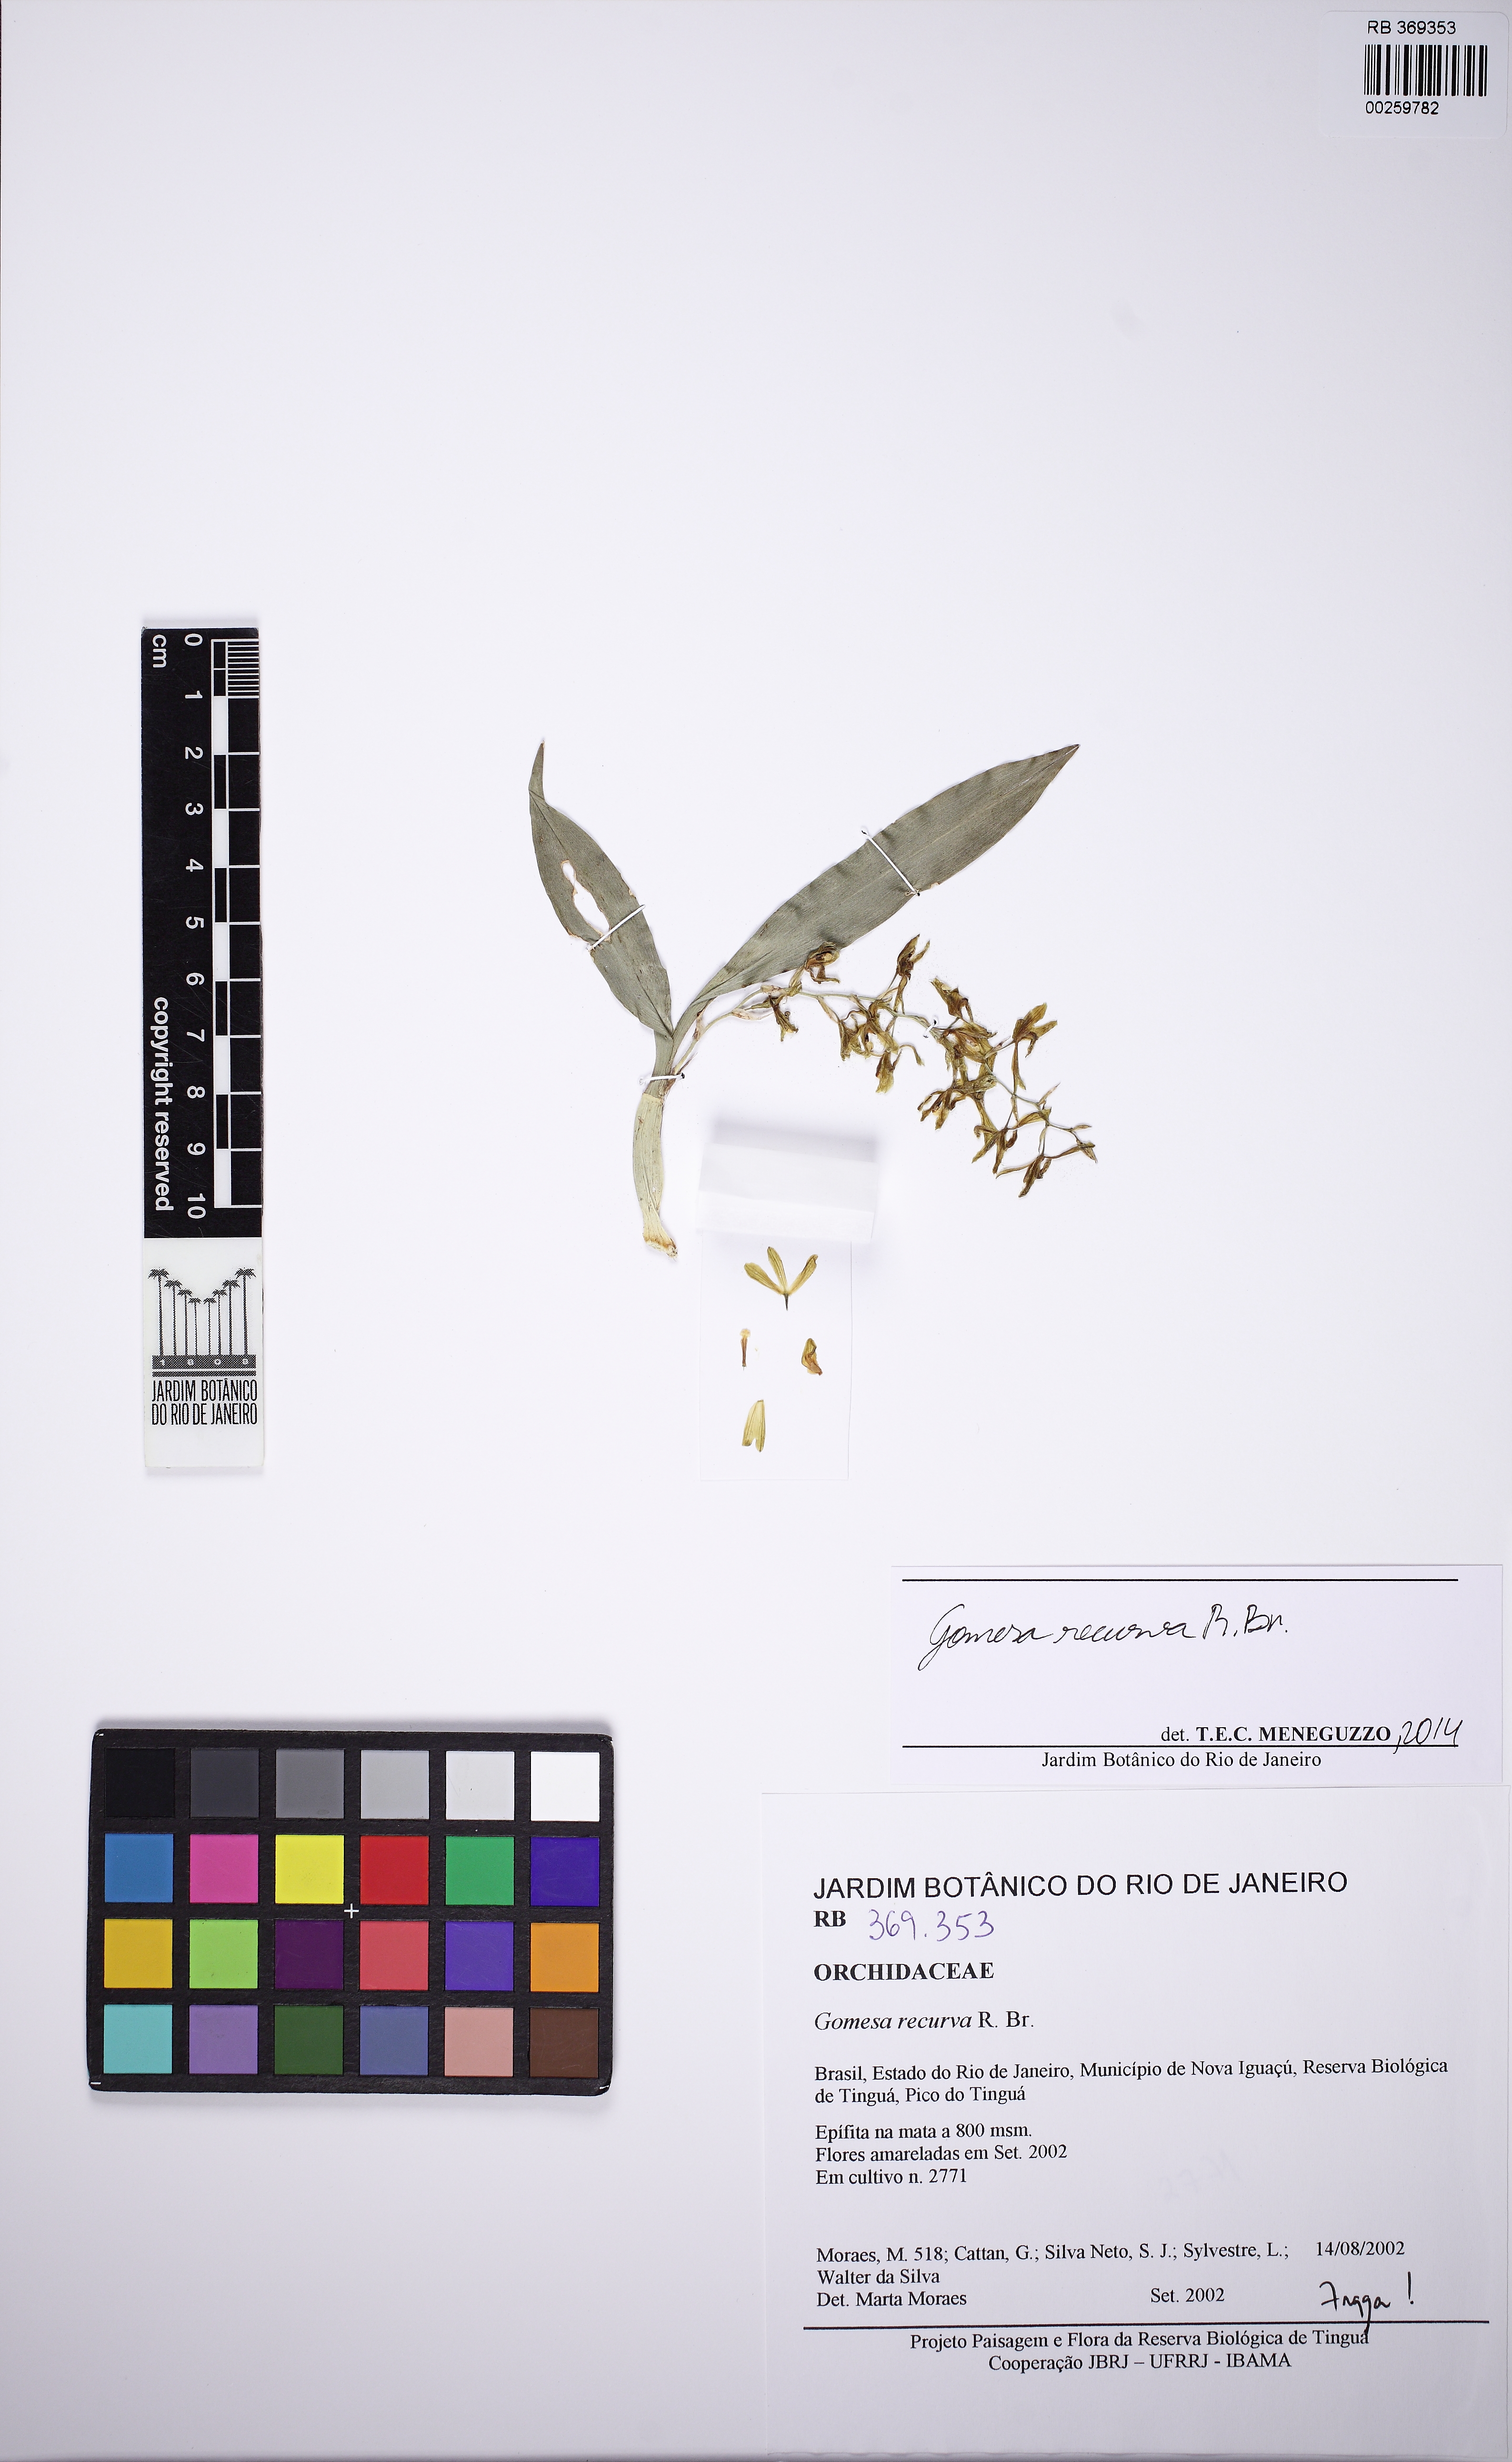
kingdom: Plantae
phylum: Tracheophyta
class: Liliopsida
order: Asparagales
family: Orchidaceae
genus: Gomesa
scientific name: Gomesa laxiflora
